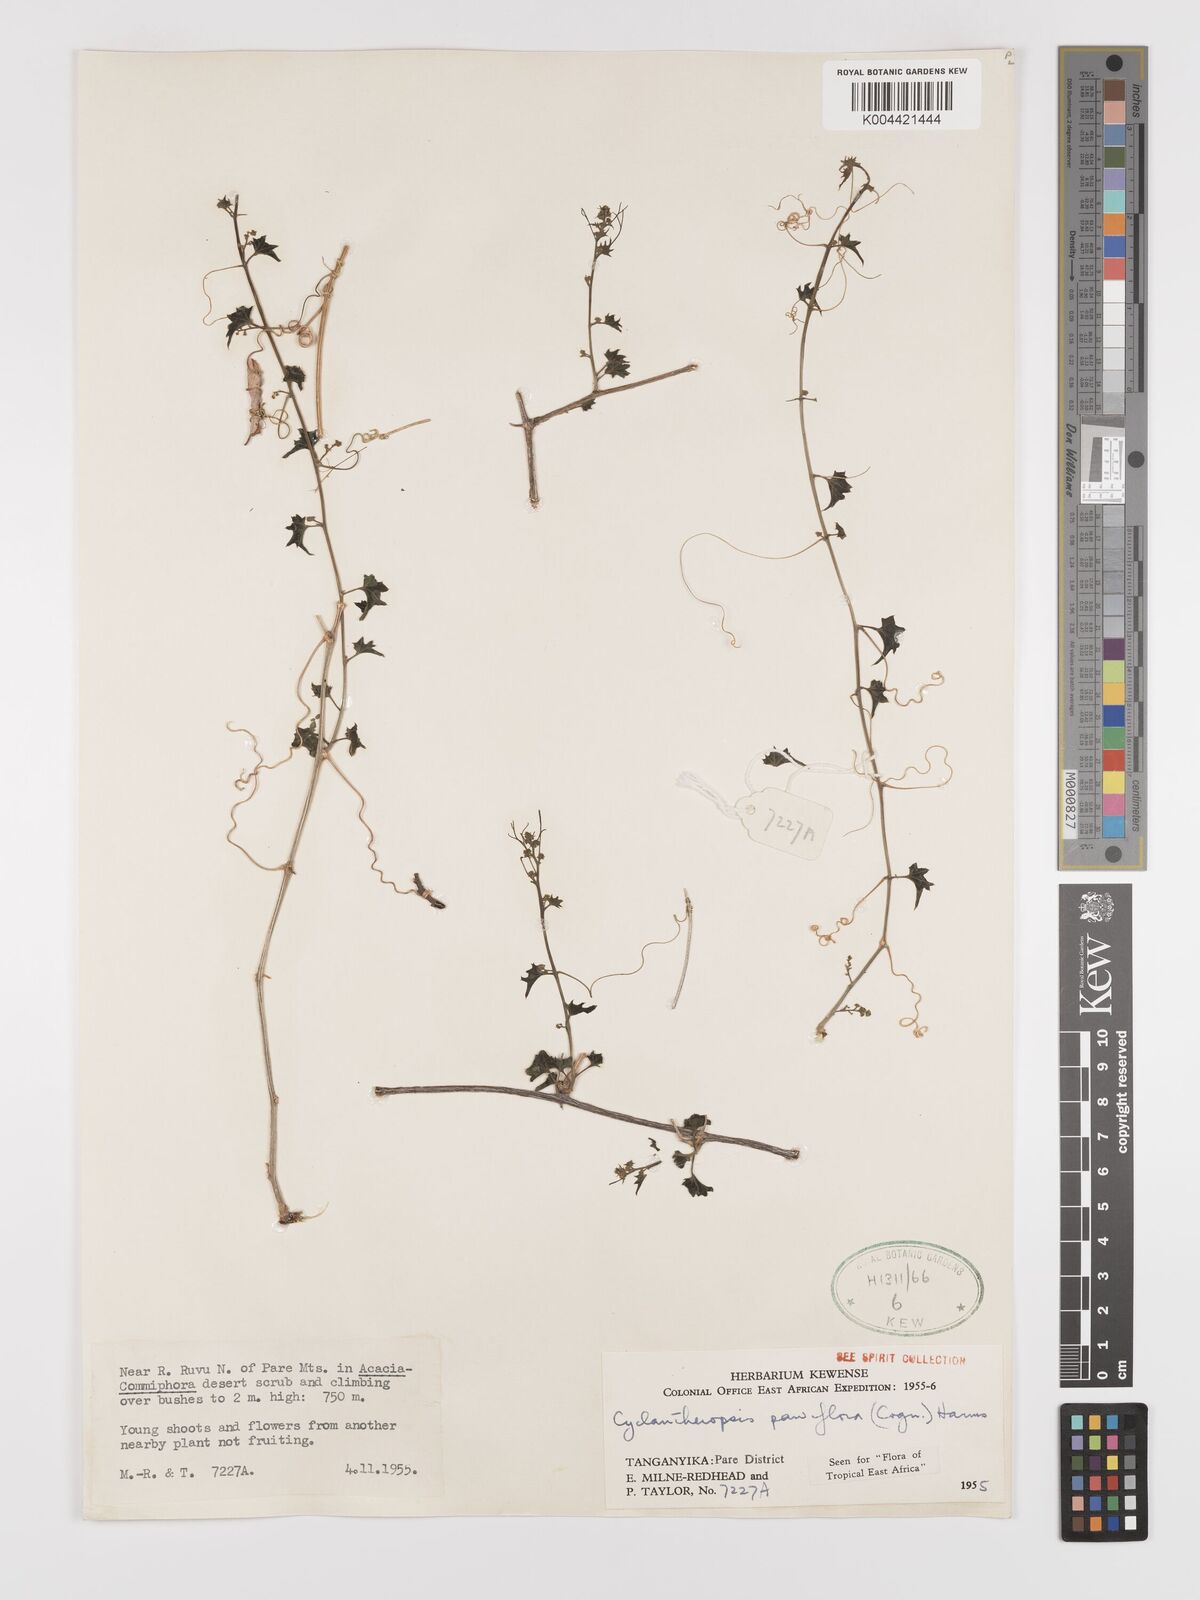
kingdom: Plantae
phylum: Tracheophyta
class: Magnoliopsida
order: Cucurbitales
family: Cucurbitaceae
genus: Cyclantheropsis
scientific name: Cyclantheropsis parviflora
